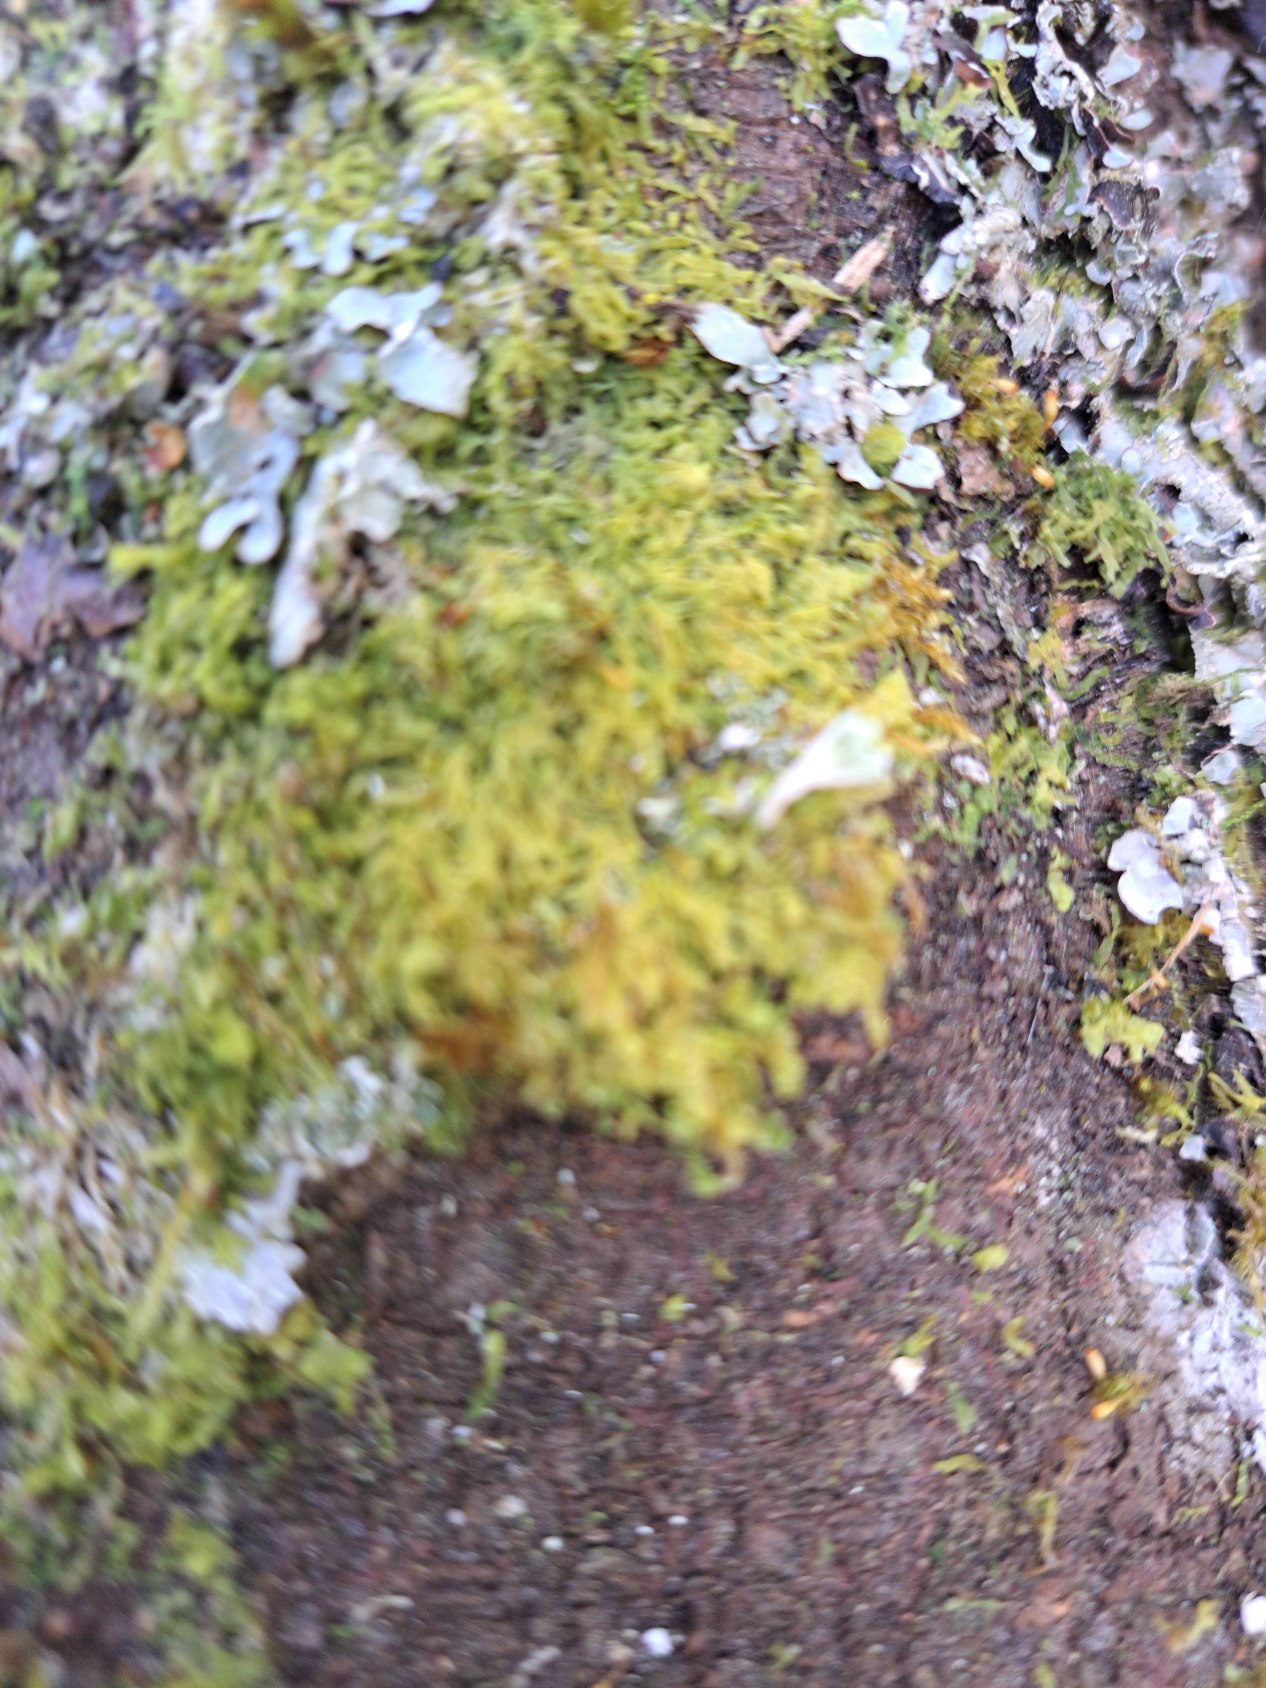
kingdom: Plantae
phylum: Marchantiophyta
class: Jungermanniopsida
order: Metzgeriales
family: Metzgeriaceae
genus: Metzgeria
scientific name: Metzgeria
